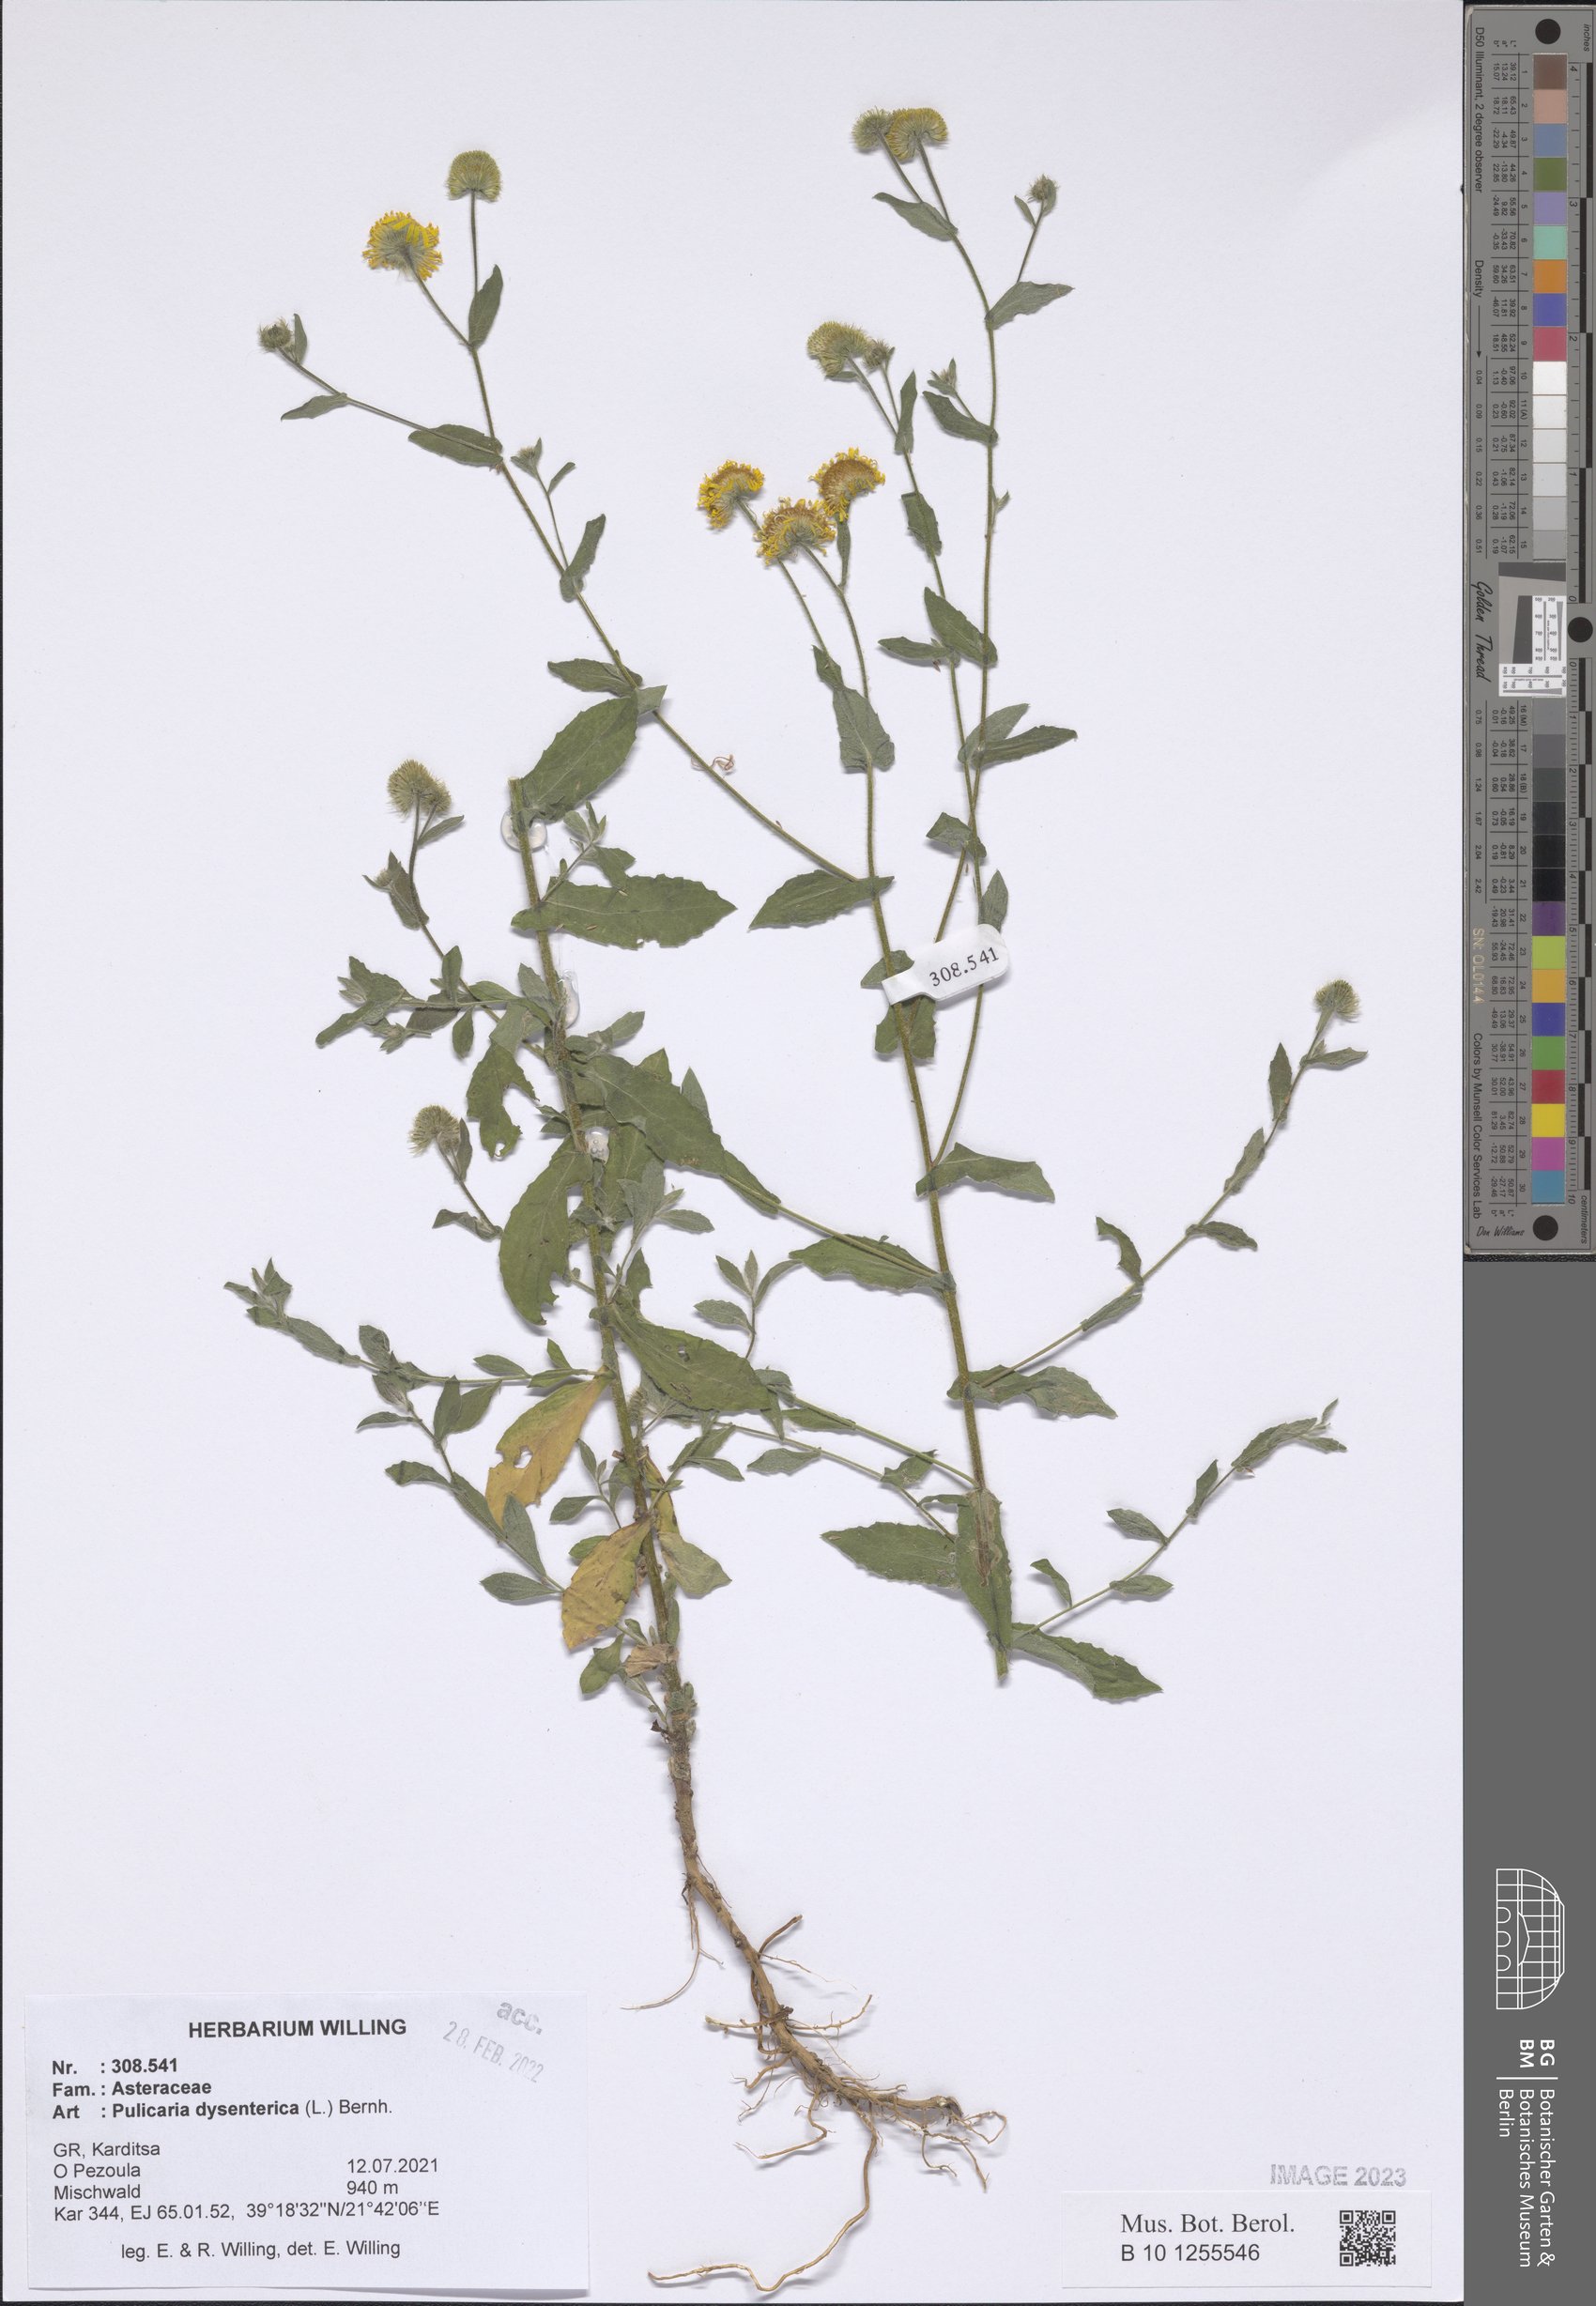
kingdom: Plantae
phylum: Tracheophyta
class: Magnoliopsida
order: Asterales
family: Asteraceae
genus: Pulicaria
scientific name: Pulicaria dysenterica
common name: Common fleabane
